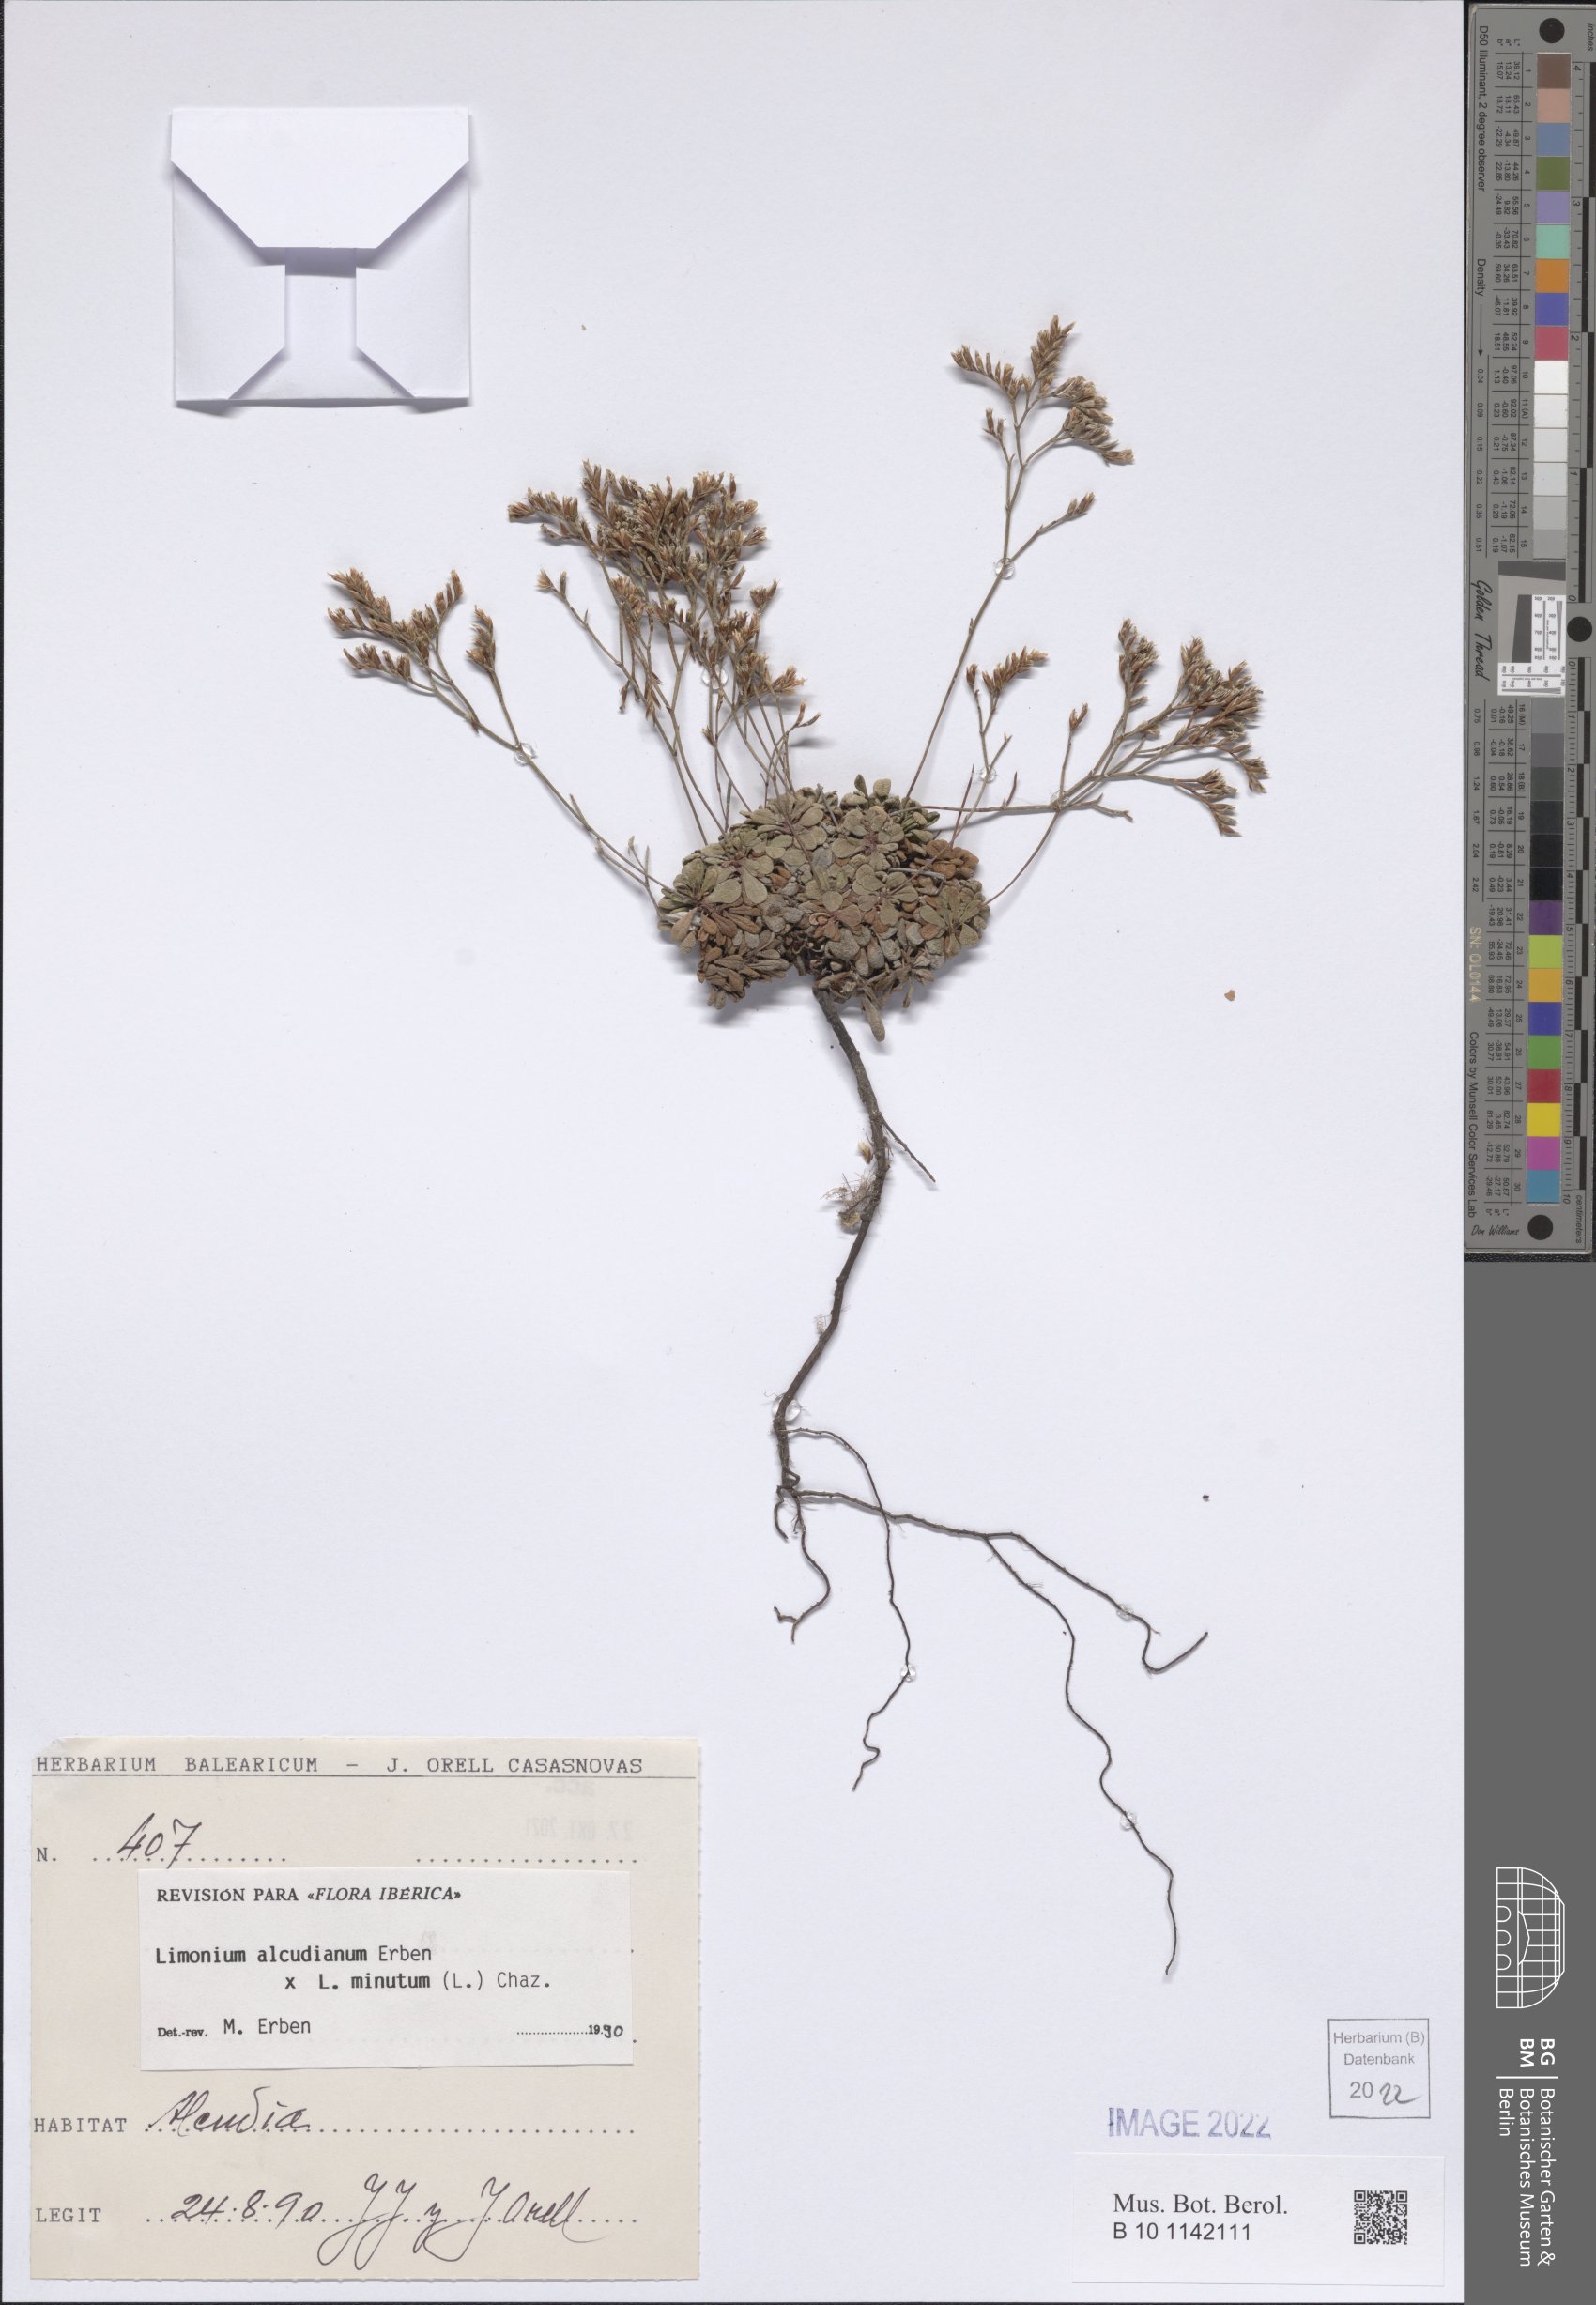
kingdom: Plantae
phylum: Tracheophyta
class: Magnoliopsida
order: Caryophyllales
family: Plumbaginaceae
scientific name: Plumbaginaceae
